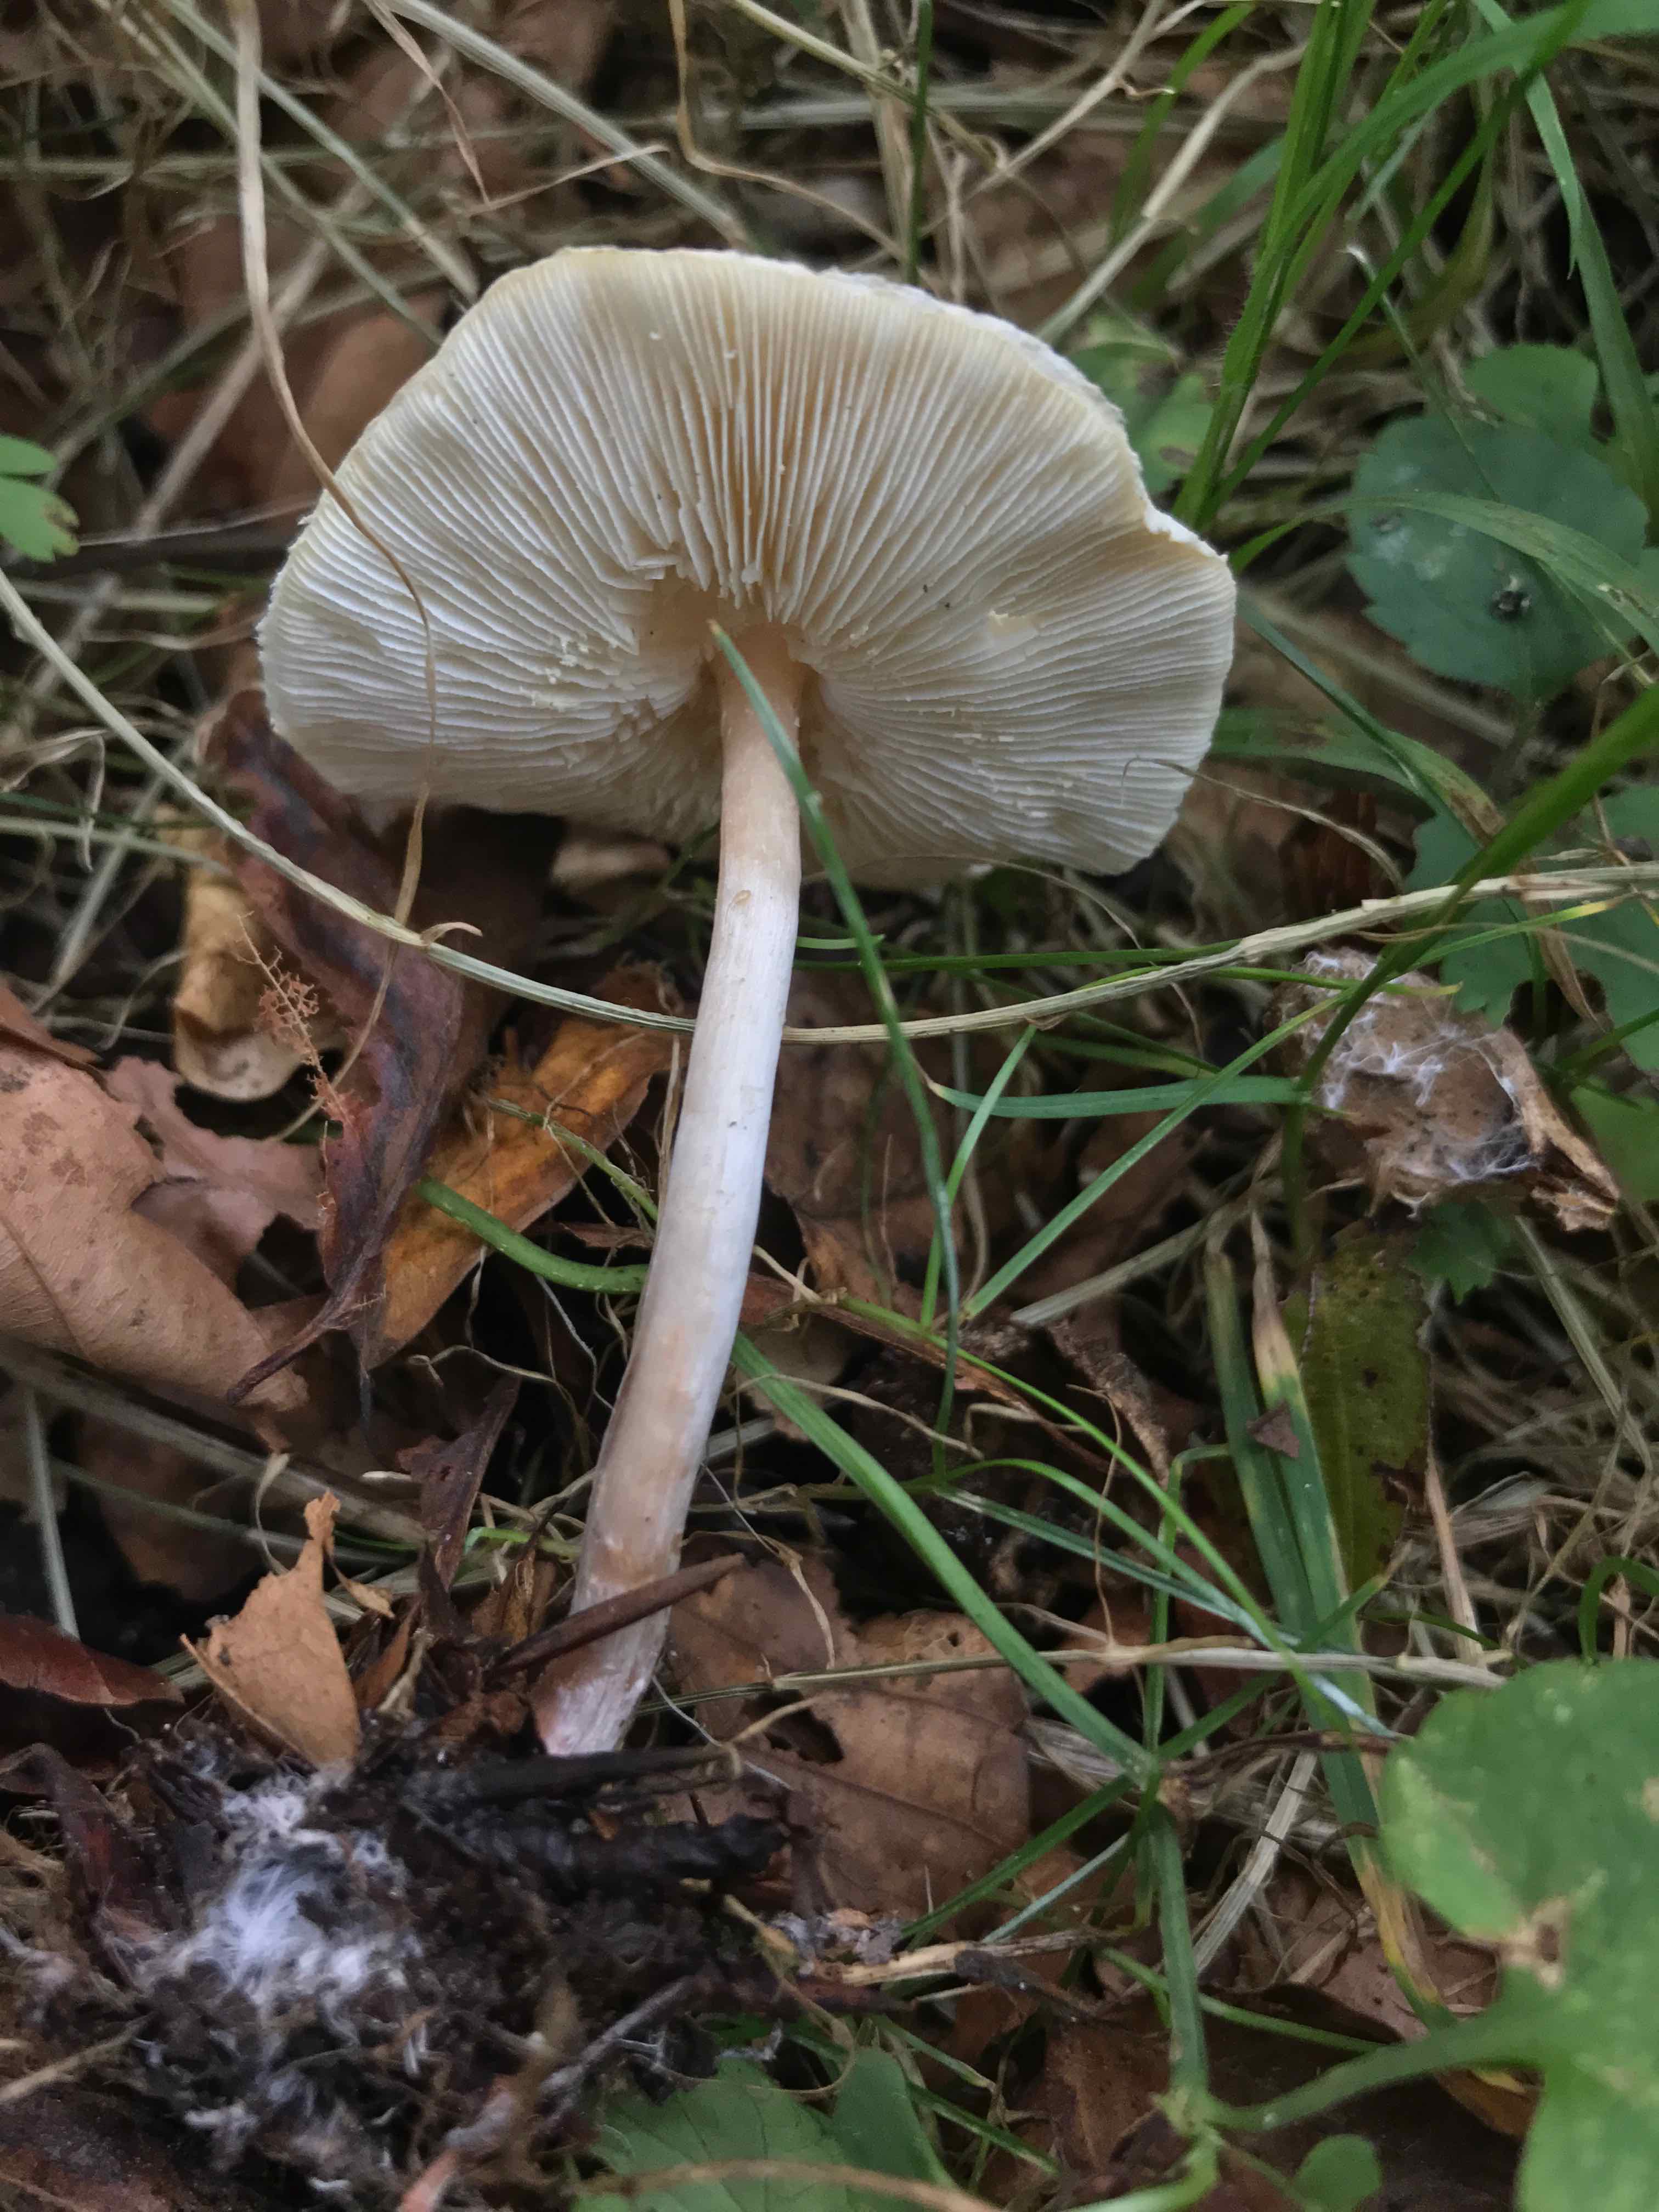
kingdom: Fungi
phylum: Basidiomycota
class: Agaricomycetes
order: Agaricales
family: Agaricaceae
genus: Lepiota
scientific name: Lepiota cristata
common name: stinkende parasolhat
